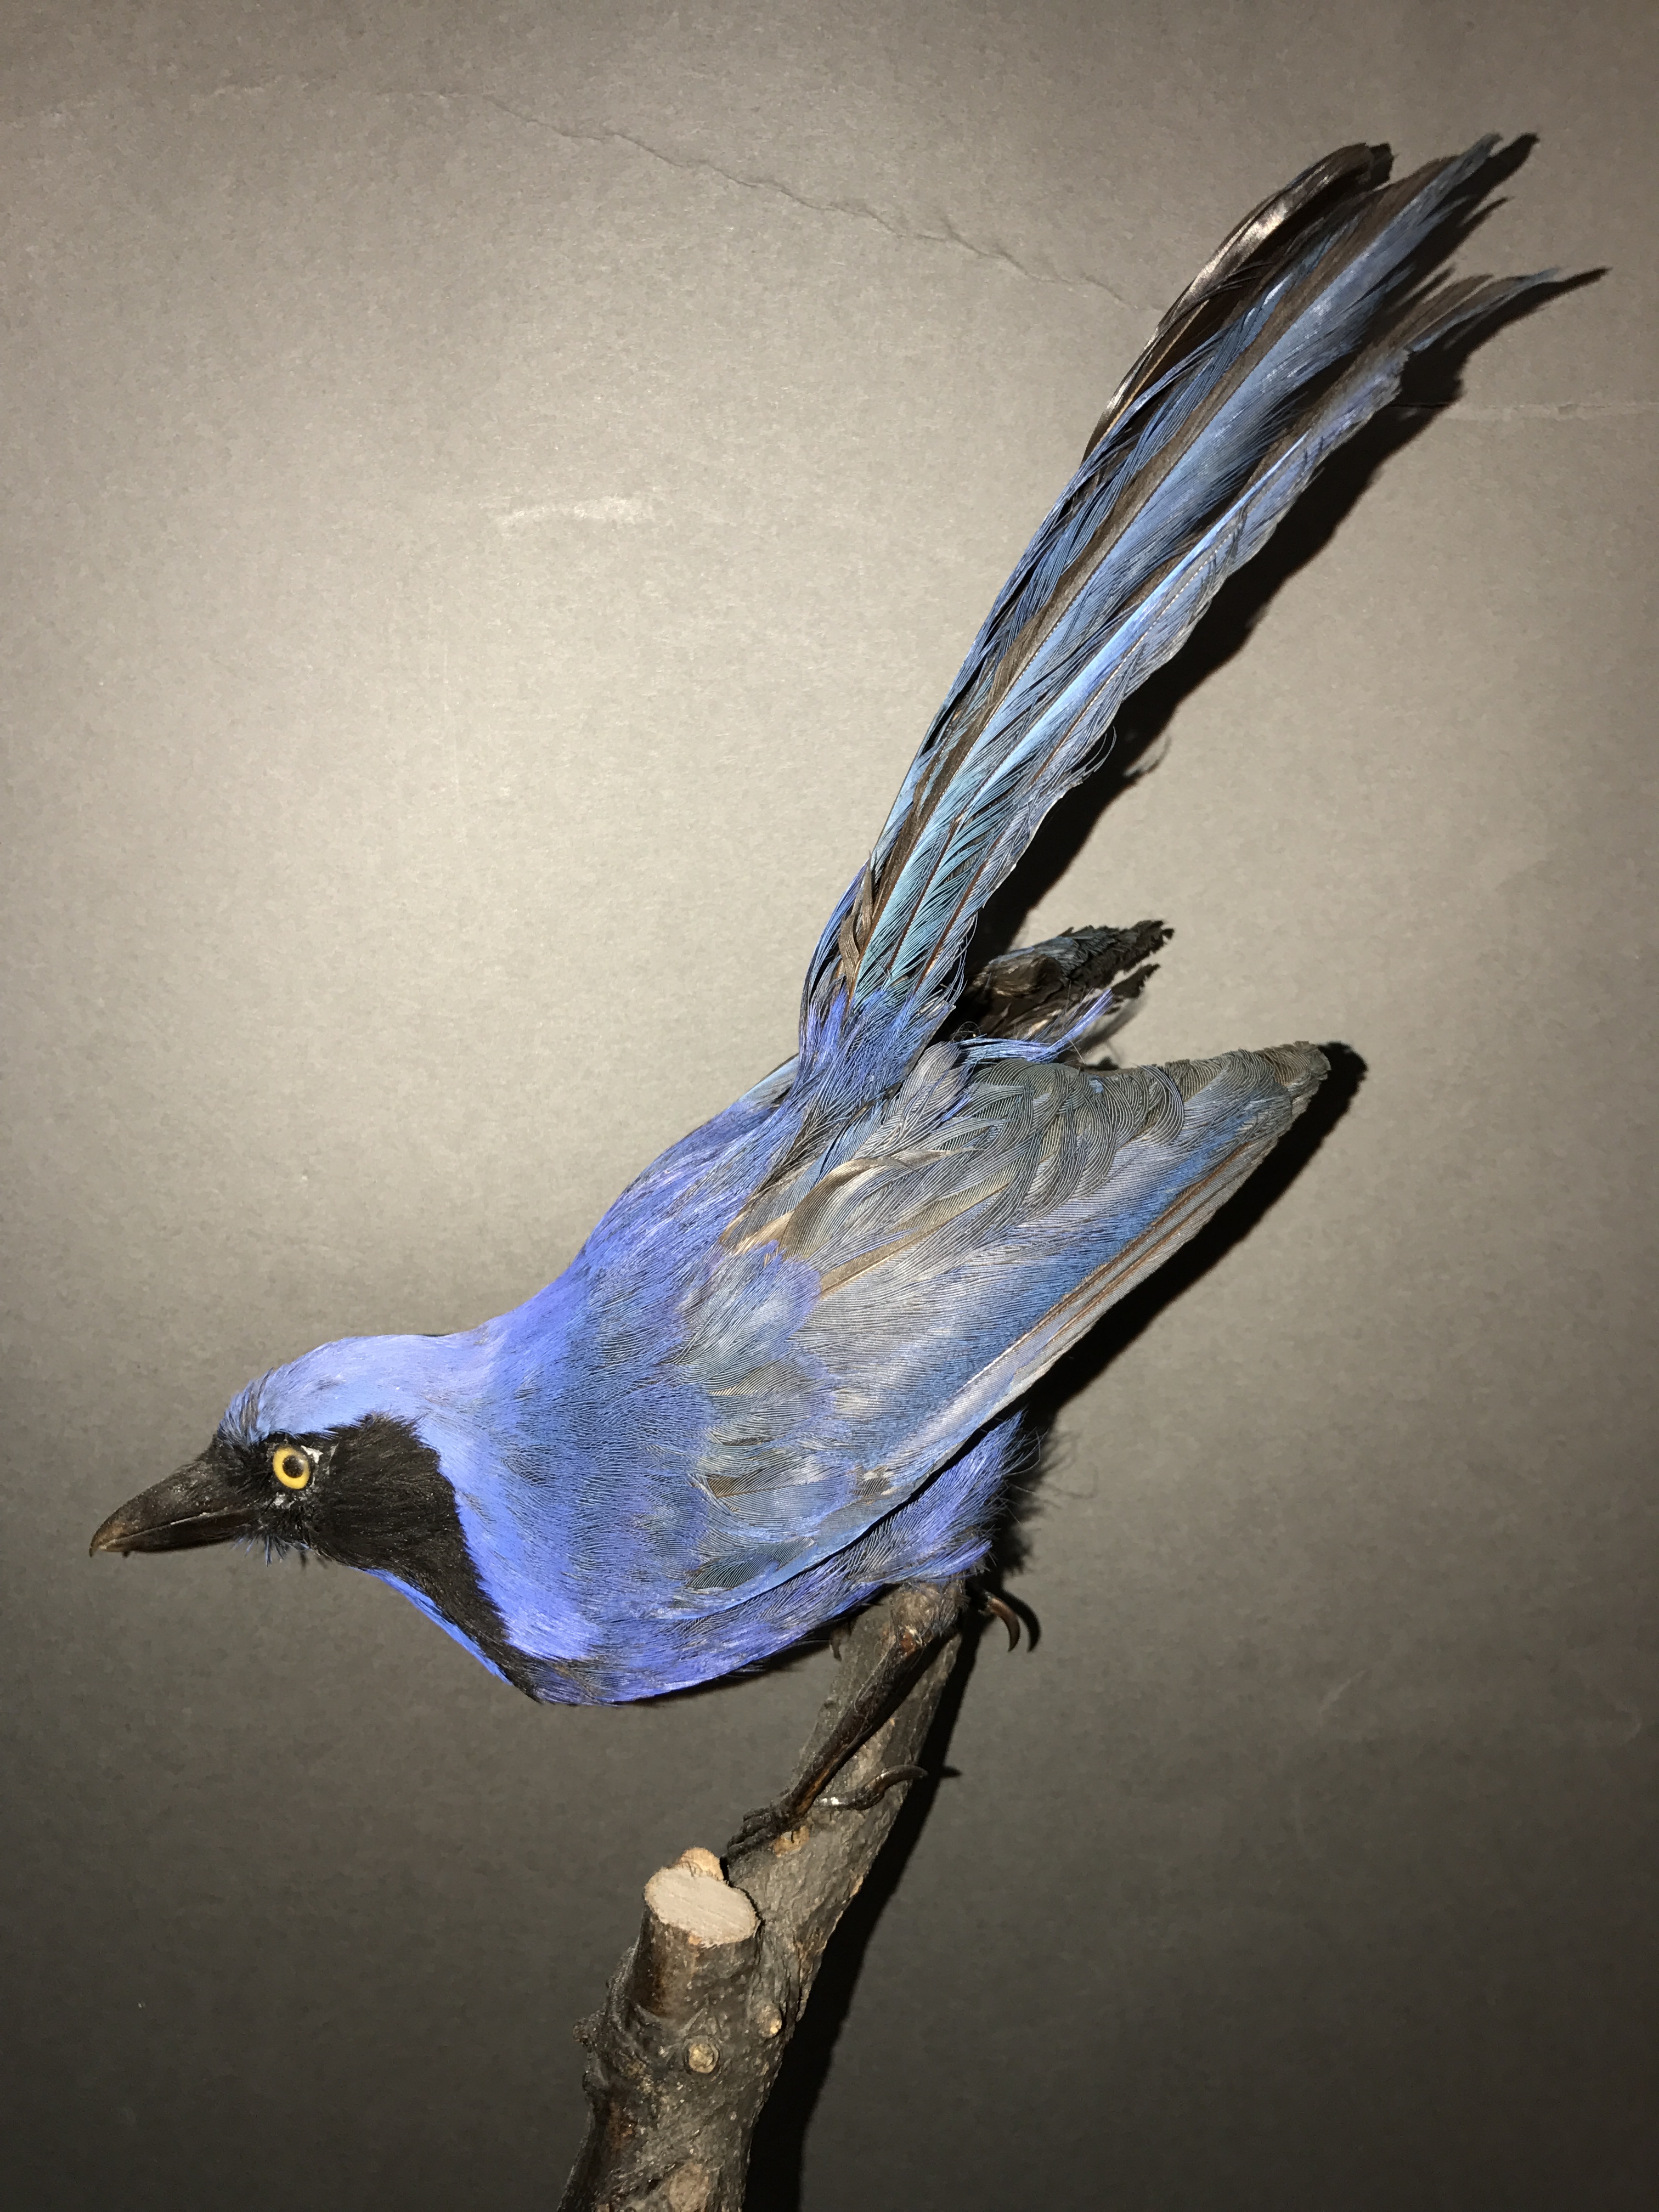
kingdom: Animalia
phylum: Chordata
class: Aves
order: Passeriformes
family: Corvidae
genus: Cyanolyca
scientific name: Cyanolyca armillata
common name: Black-collared jay
